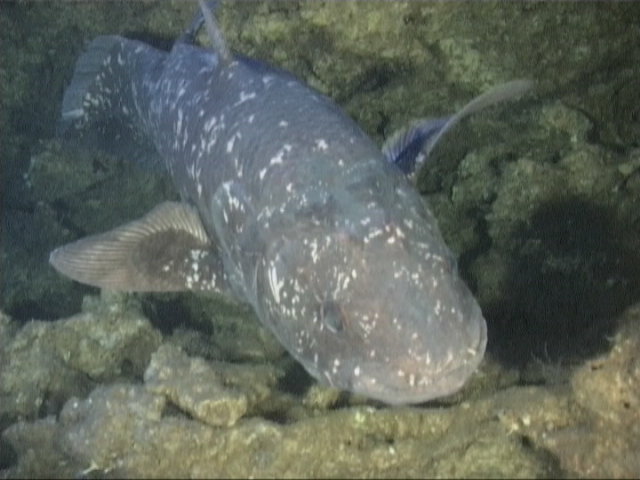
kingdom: Animalia
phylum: Chordata
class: Coelacanthi
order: Coelacanthiformes
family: Latimeriidae
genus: Latimeria
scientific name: Latimeria chalumnae
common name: Coelacanth
